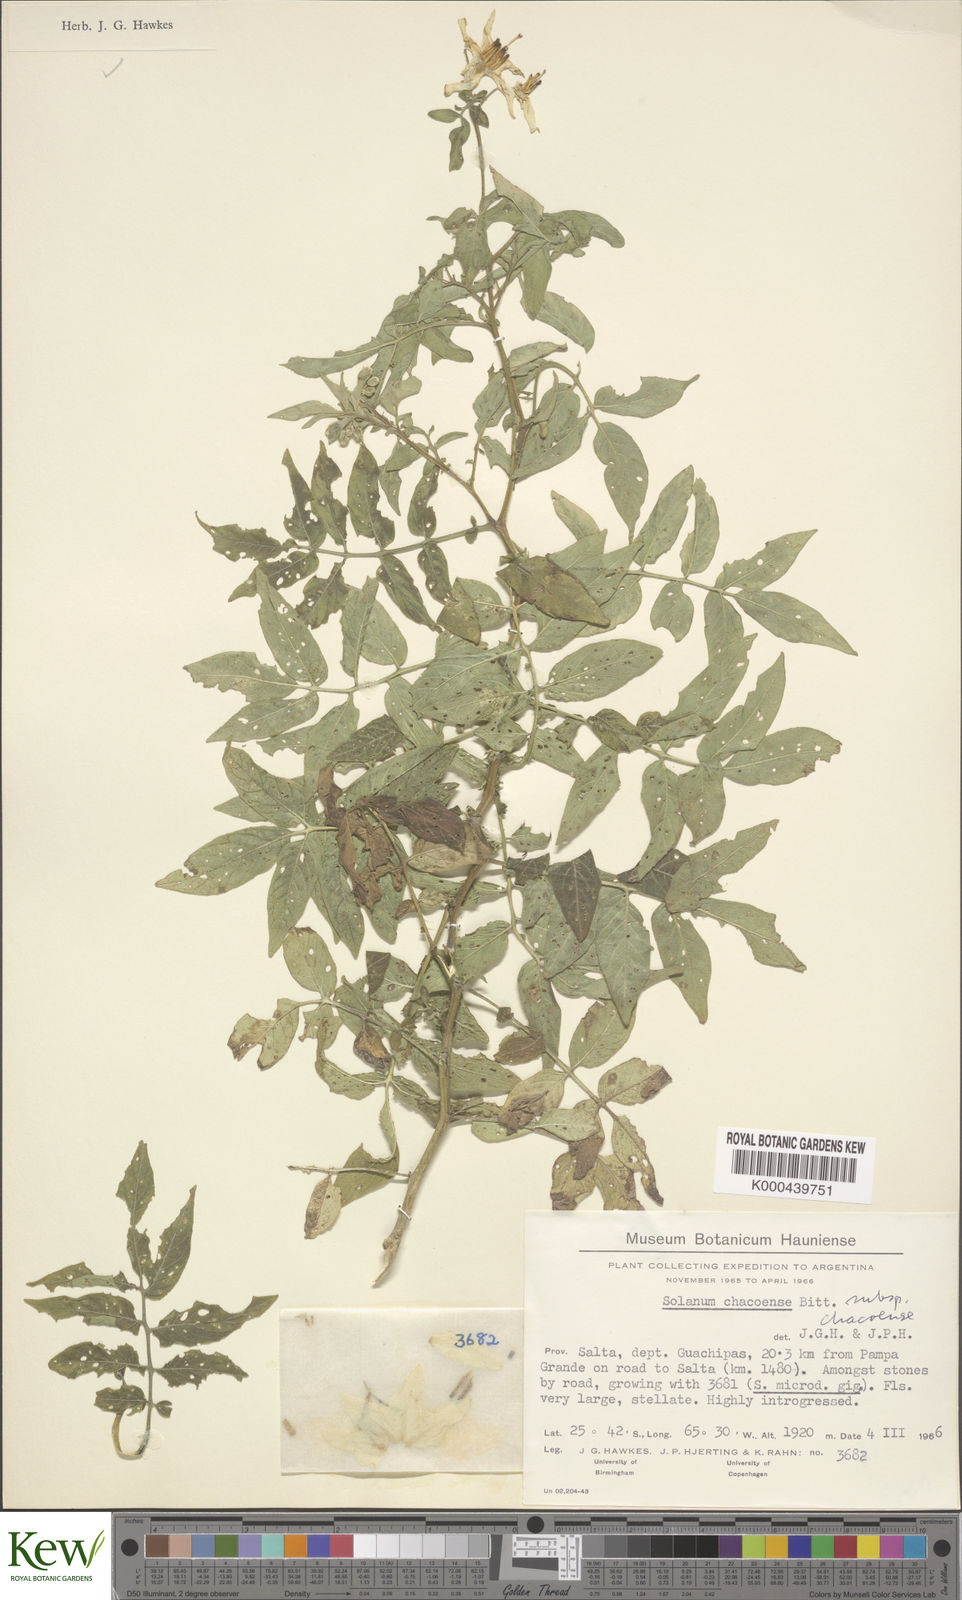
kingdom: Plantae
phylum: Tracheophyta
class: Magnoliopsida
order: Solanales
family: Solanaceae
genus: Solanum
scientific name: Solanum chacoense
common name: Chaco potato
